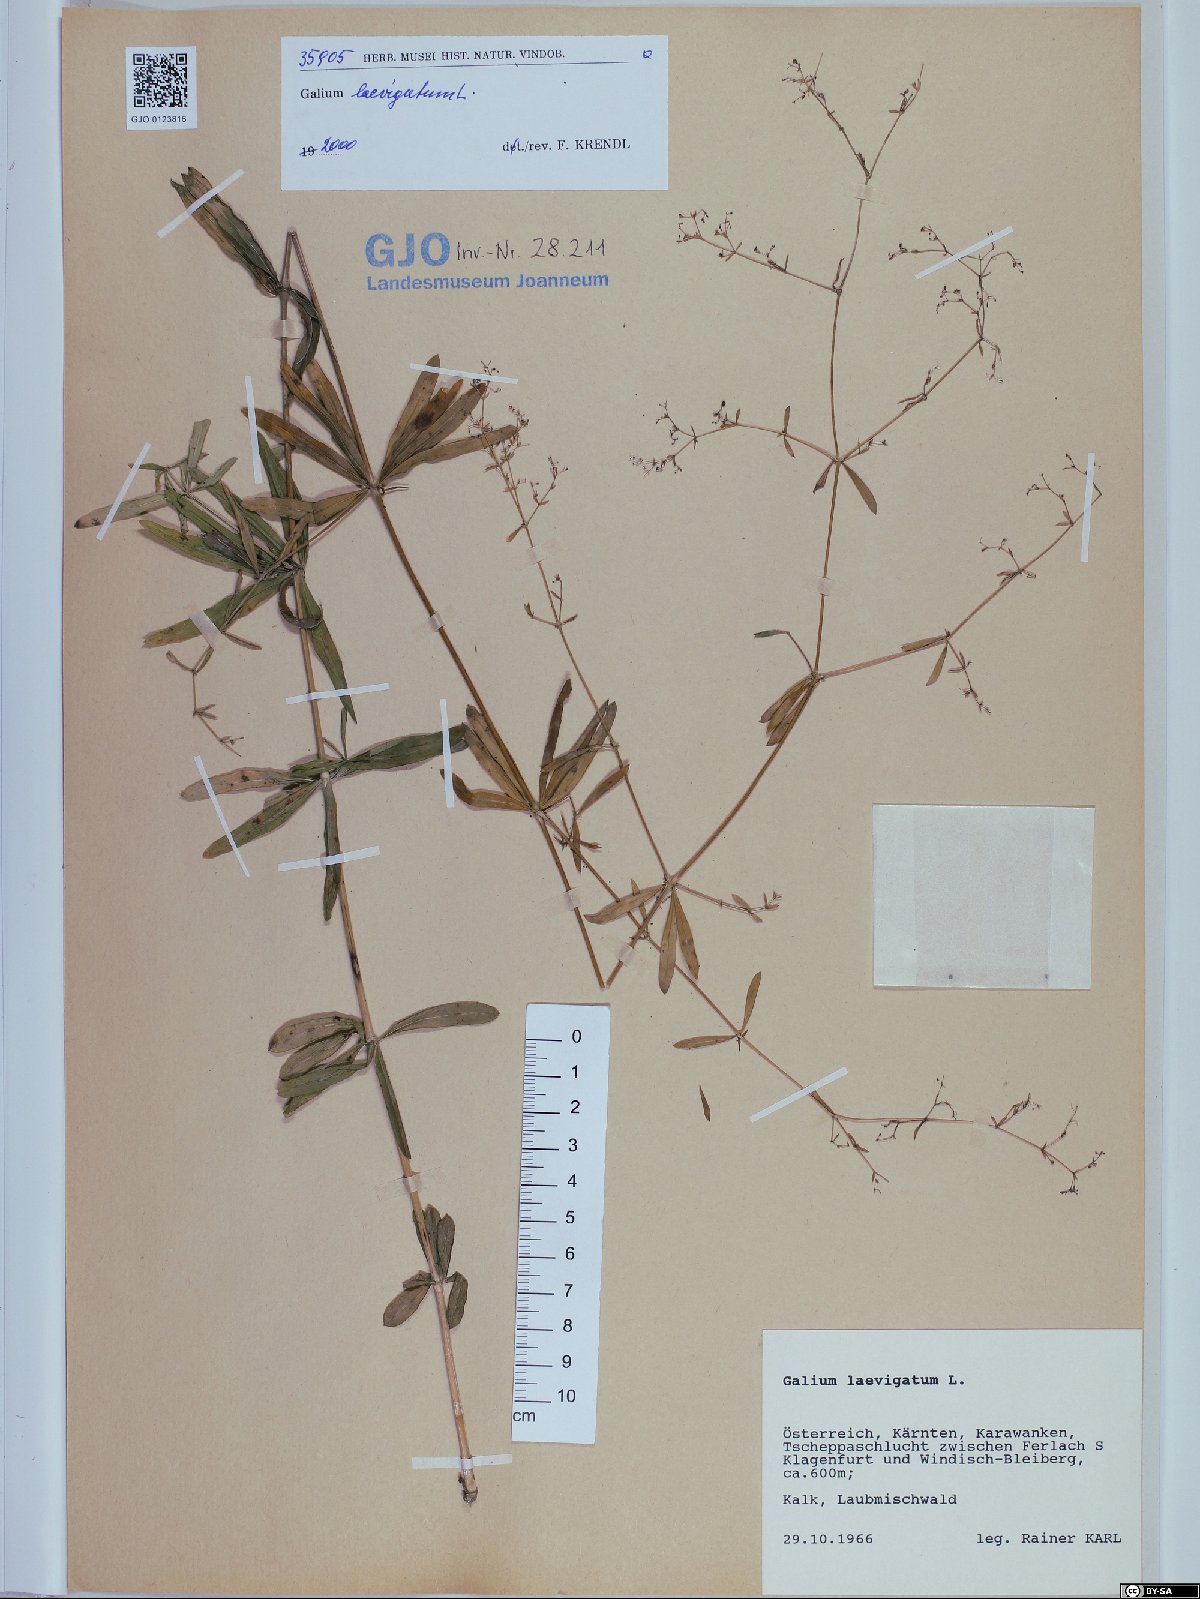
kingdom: Plantae
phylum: Tracheophyta
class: Magnoliopsida
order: Gentianales
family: Rubiaceae
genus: Galium
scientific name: Galium laevigatum
